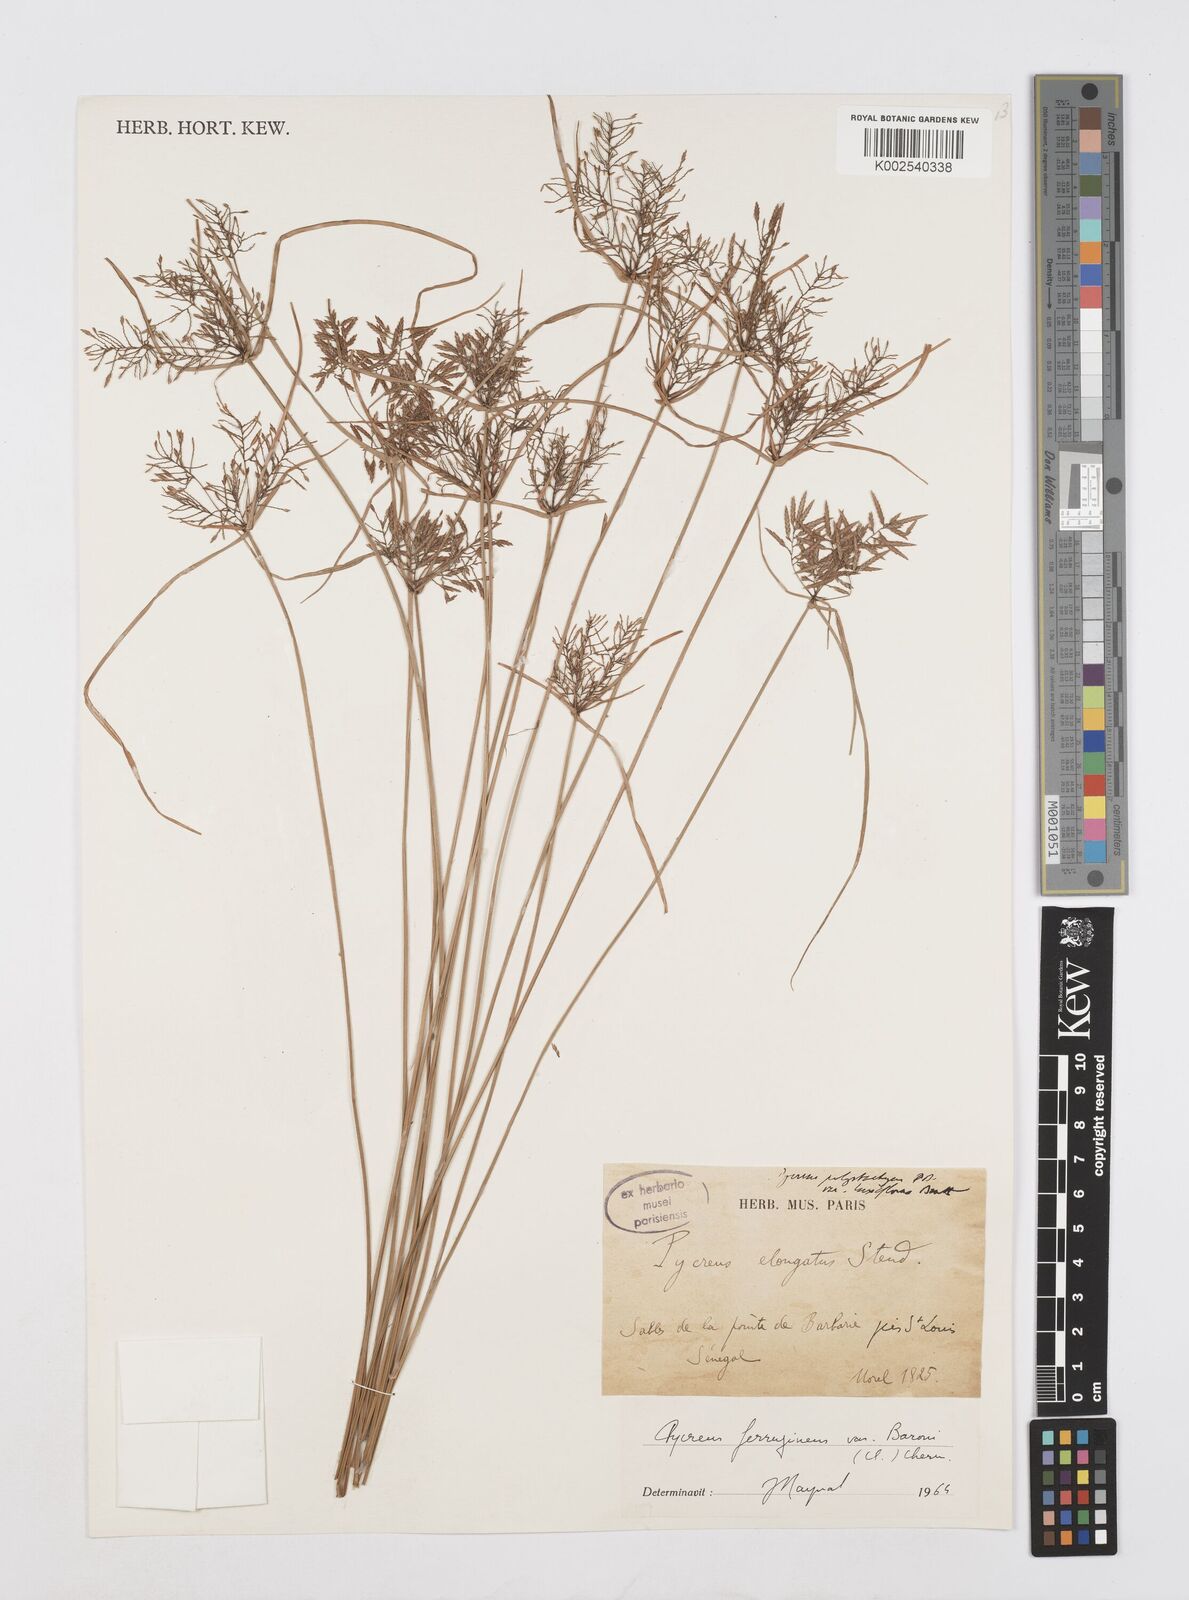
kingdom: Plantae
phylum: Tracheophyta
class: Liliopsida
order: Poales
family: Cyperaceae
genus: Cyperus
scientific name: Cyperus intactus
